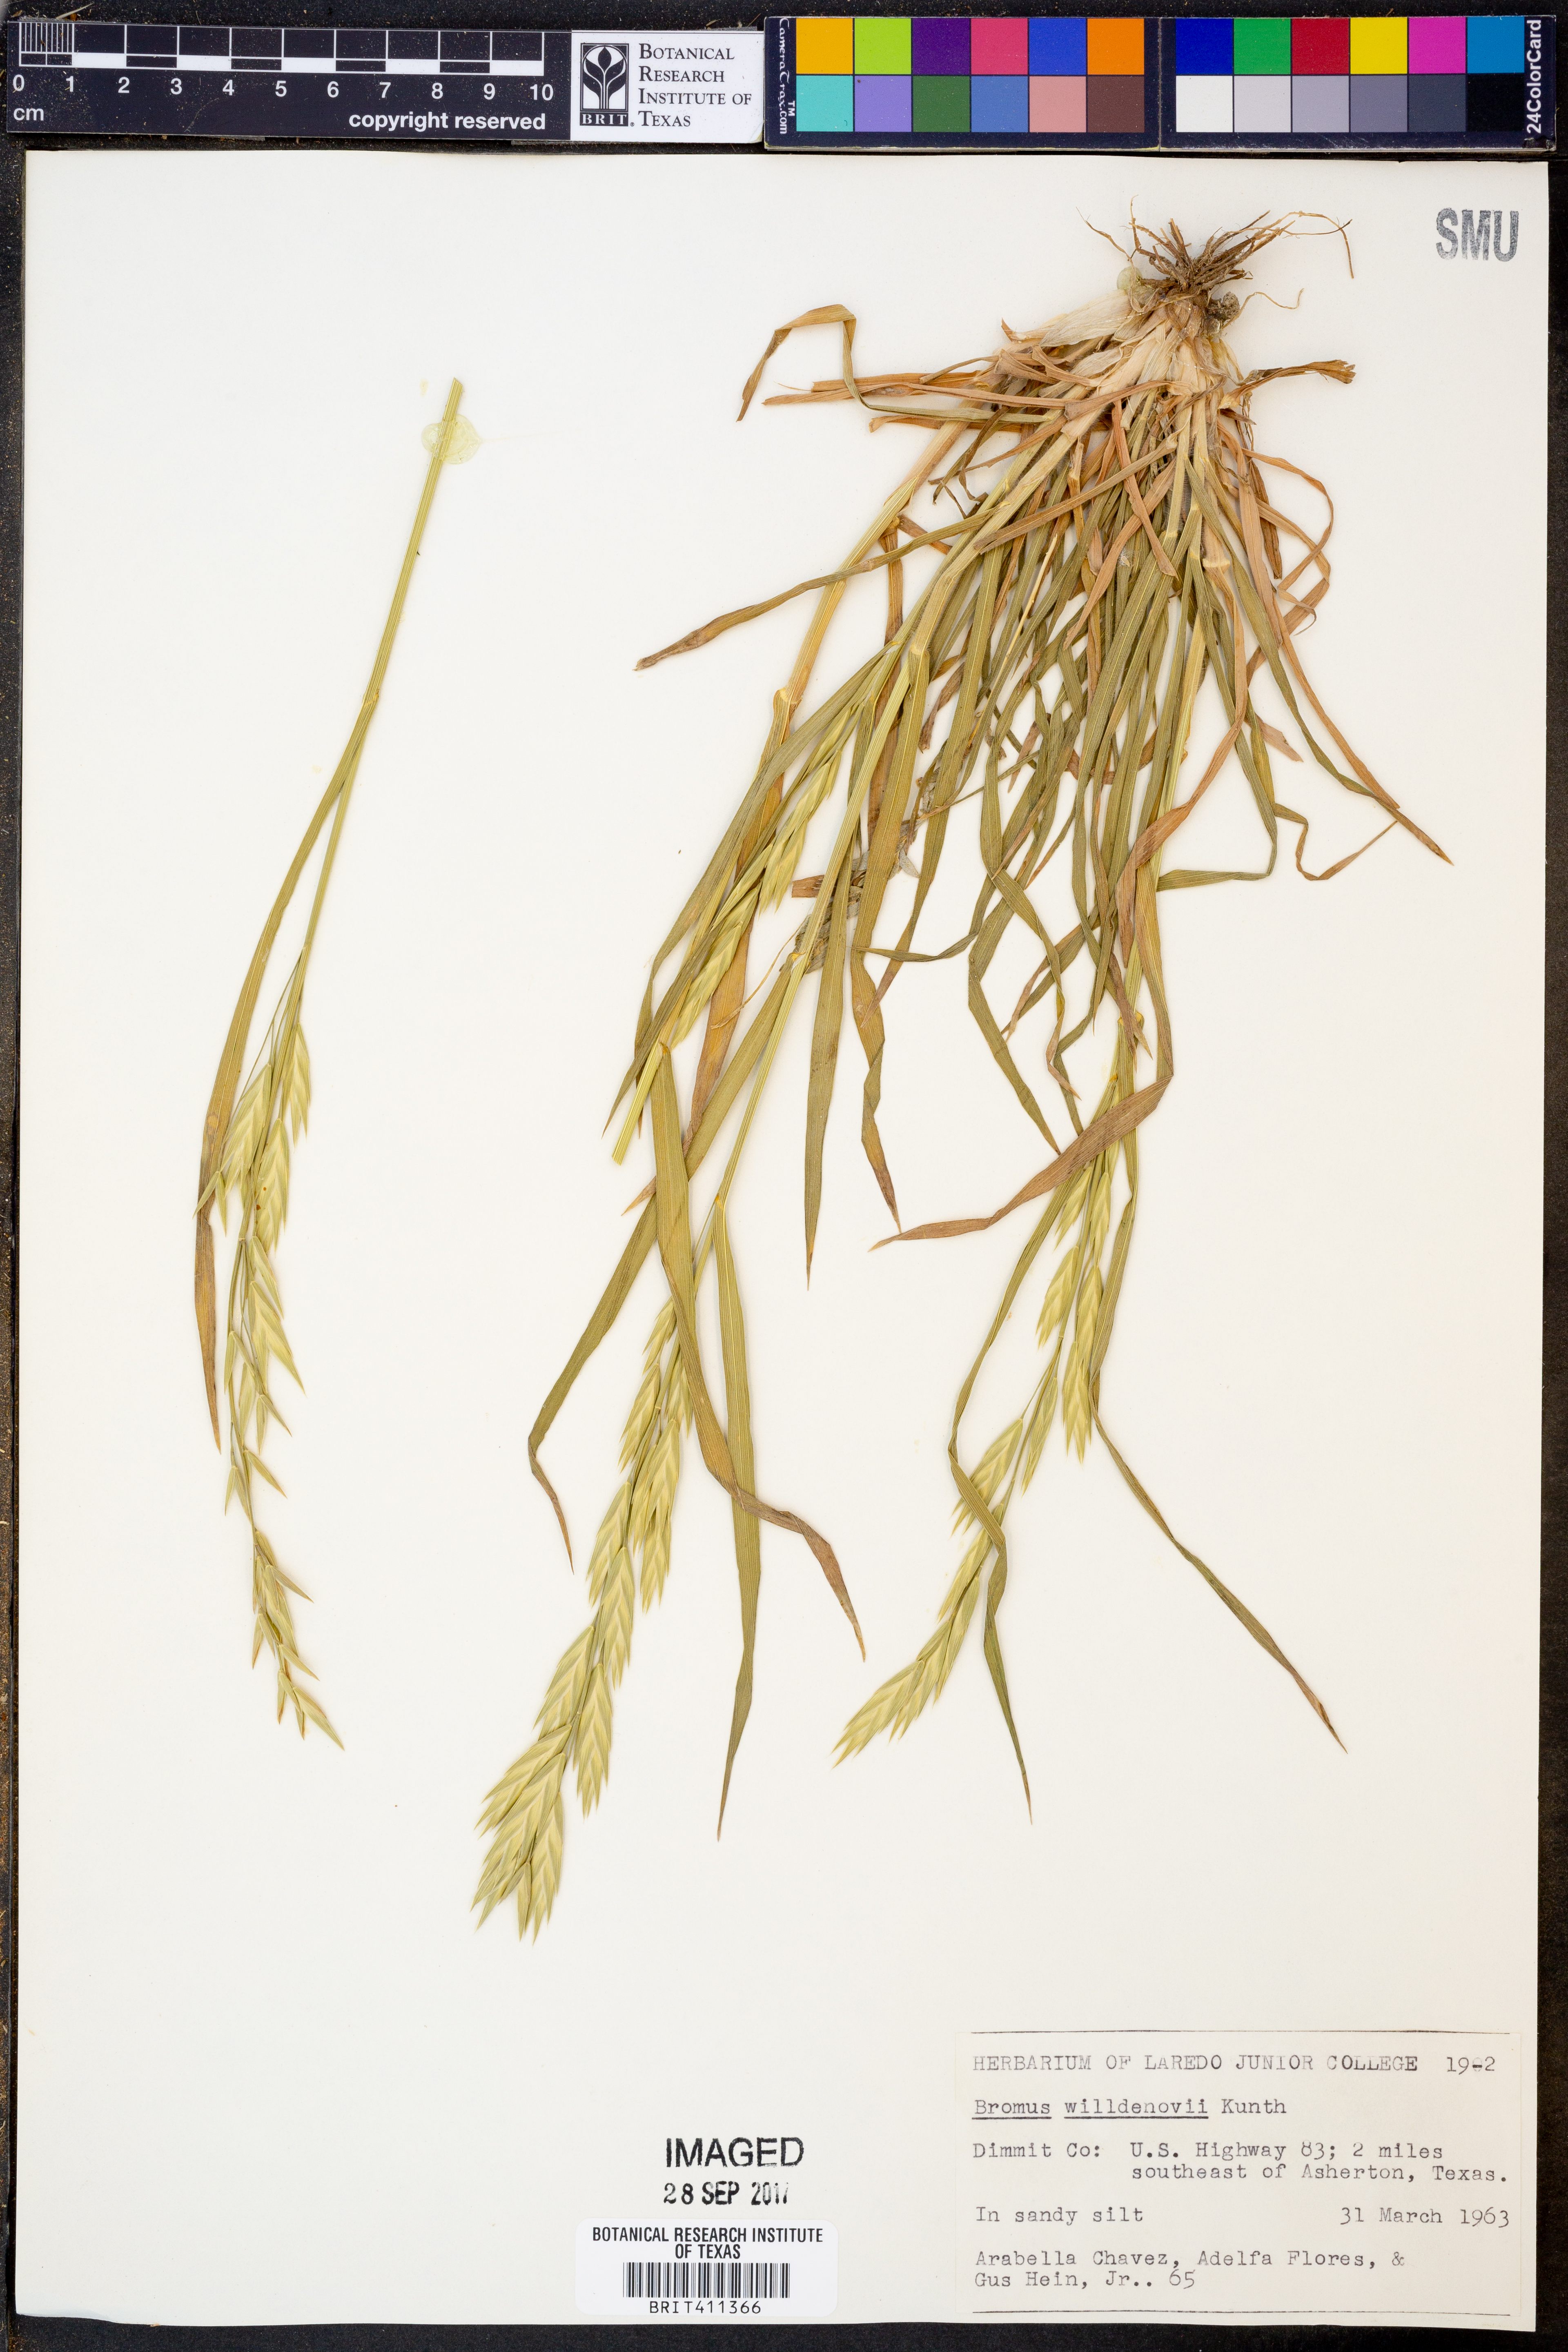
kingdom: Plantae
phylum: Tracheophyta
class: Liliopsida
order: Poales
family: Poaceae
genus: Bromus
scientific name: Bromus catharticus
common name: Rescuegrass
